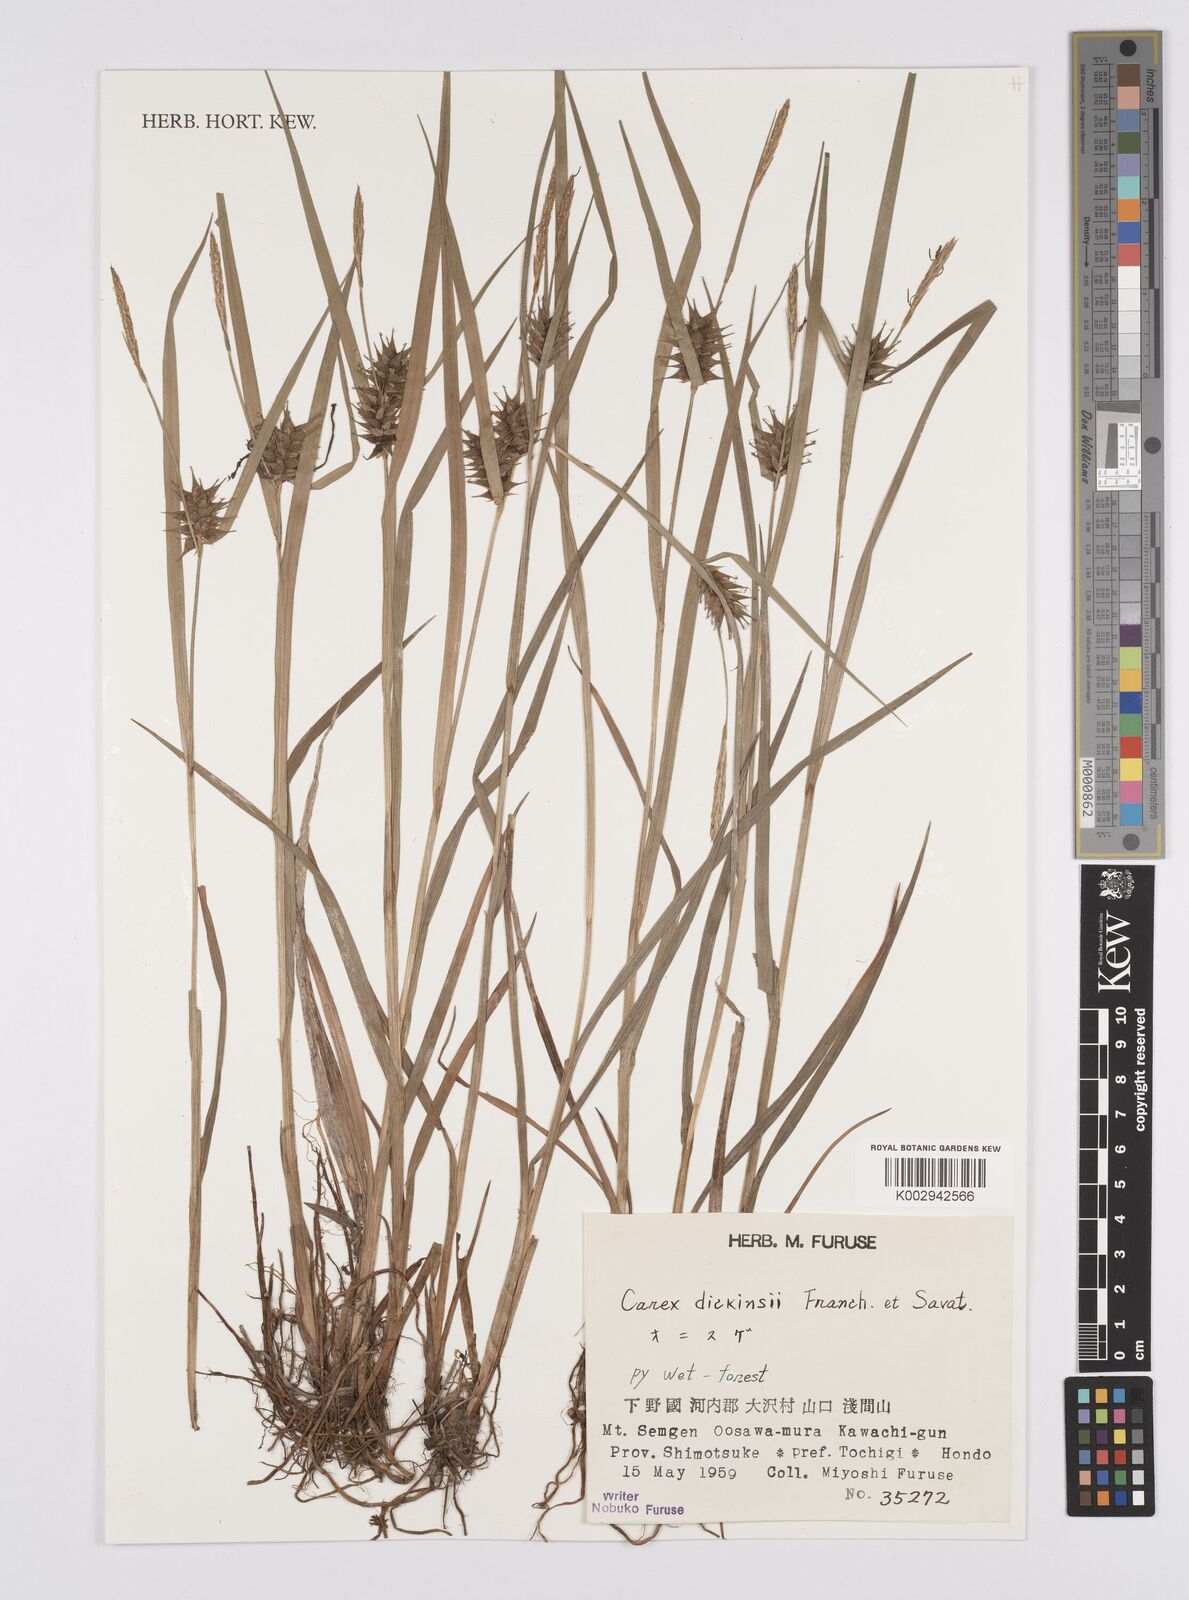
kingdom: Plantae
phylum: Tracheophyta
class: Liliopsida
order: Poales
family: Cyperaceae
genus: Carex
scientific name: Carex dickinsii
